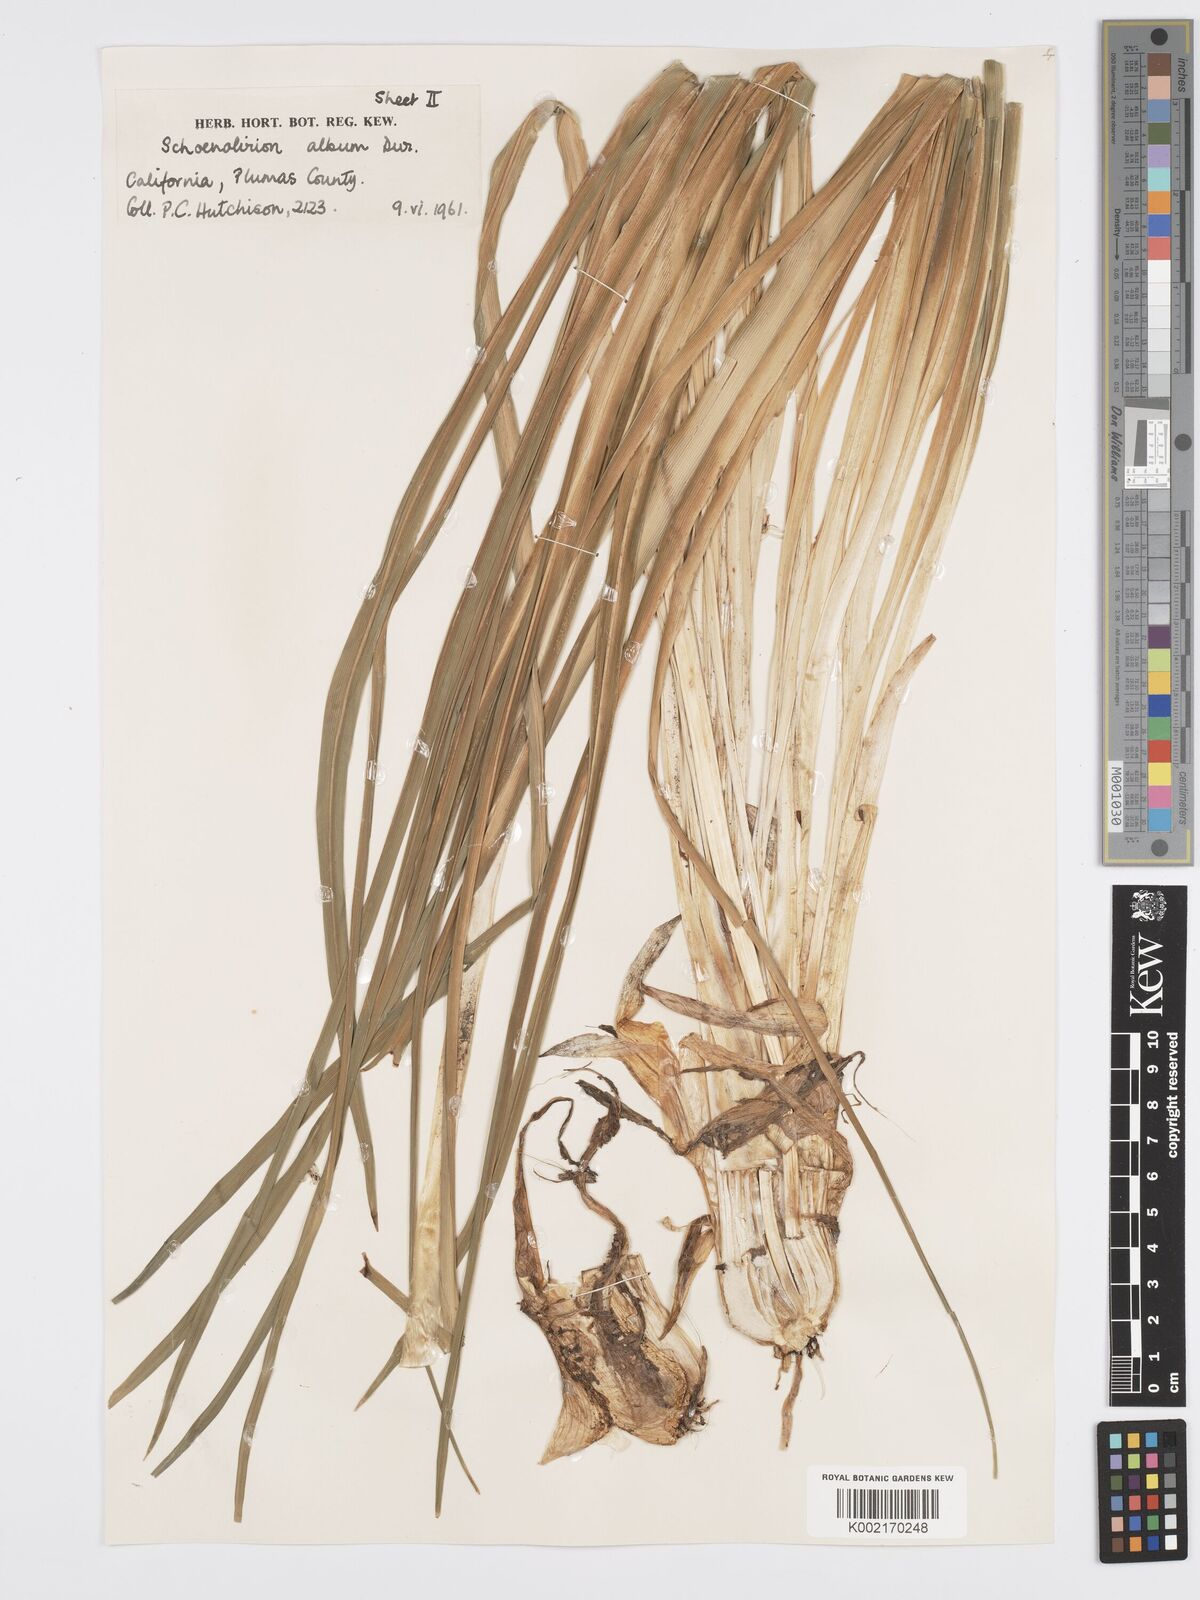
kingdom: Plantae
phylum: Tracheophyta
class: Liliopsida
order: Asparagales
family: Asparagaceae
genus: Hastingsia
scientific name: Hastingsia alba
